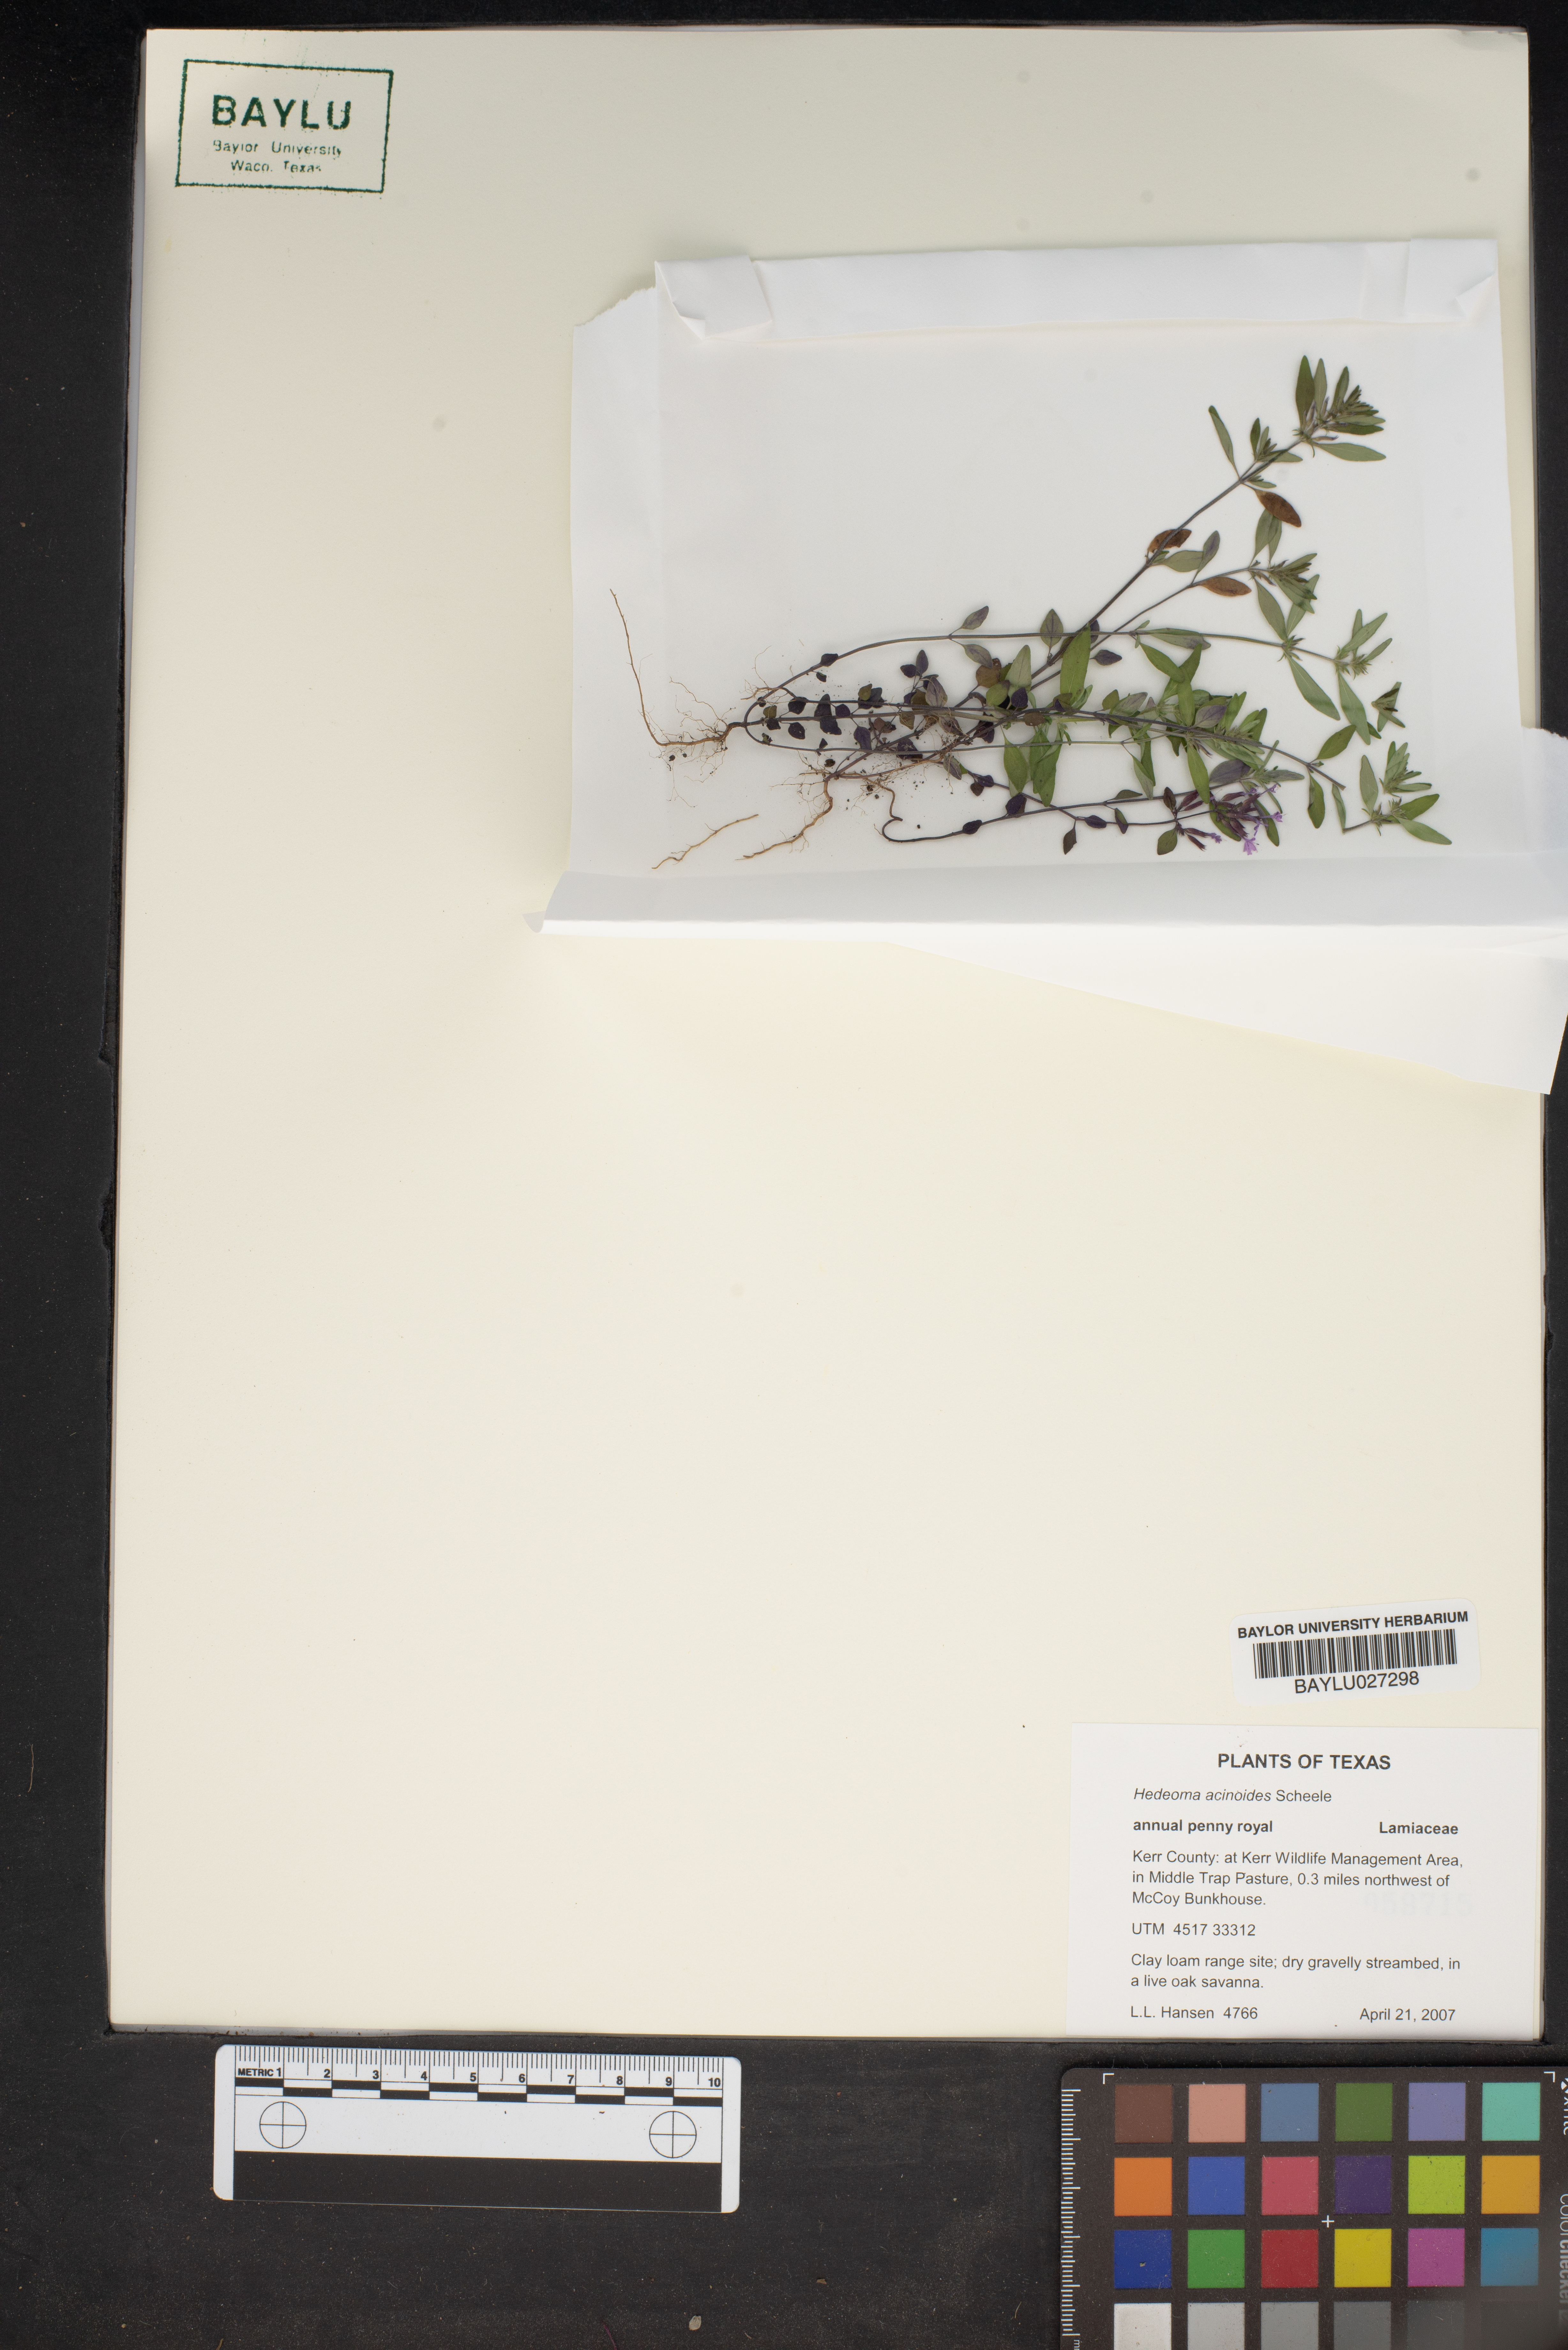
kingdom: Plantae
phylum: Tracheophyta
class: Magnoliopsida
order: Lamiales
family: Lamiaceae
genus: Hedeoma
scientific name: Hedeoma acinoides
